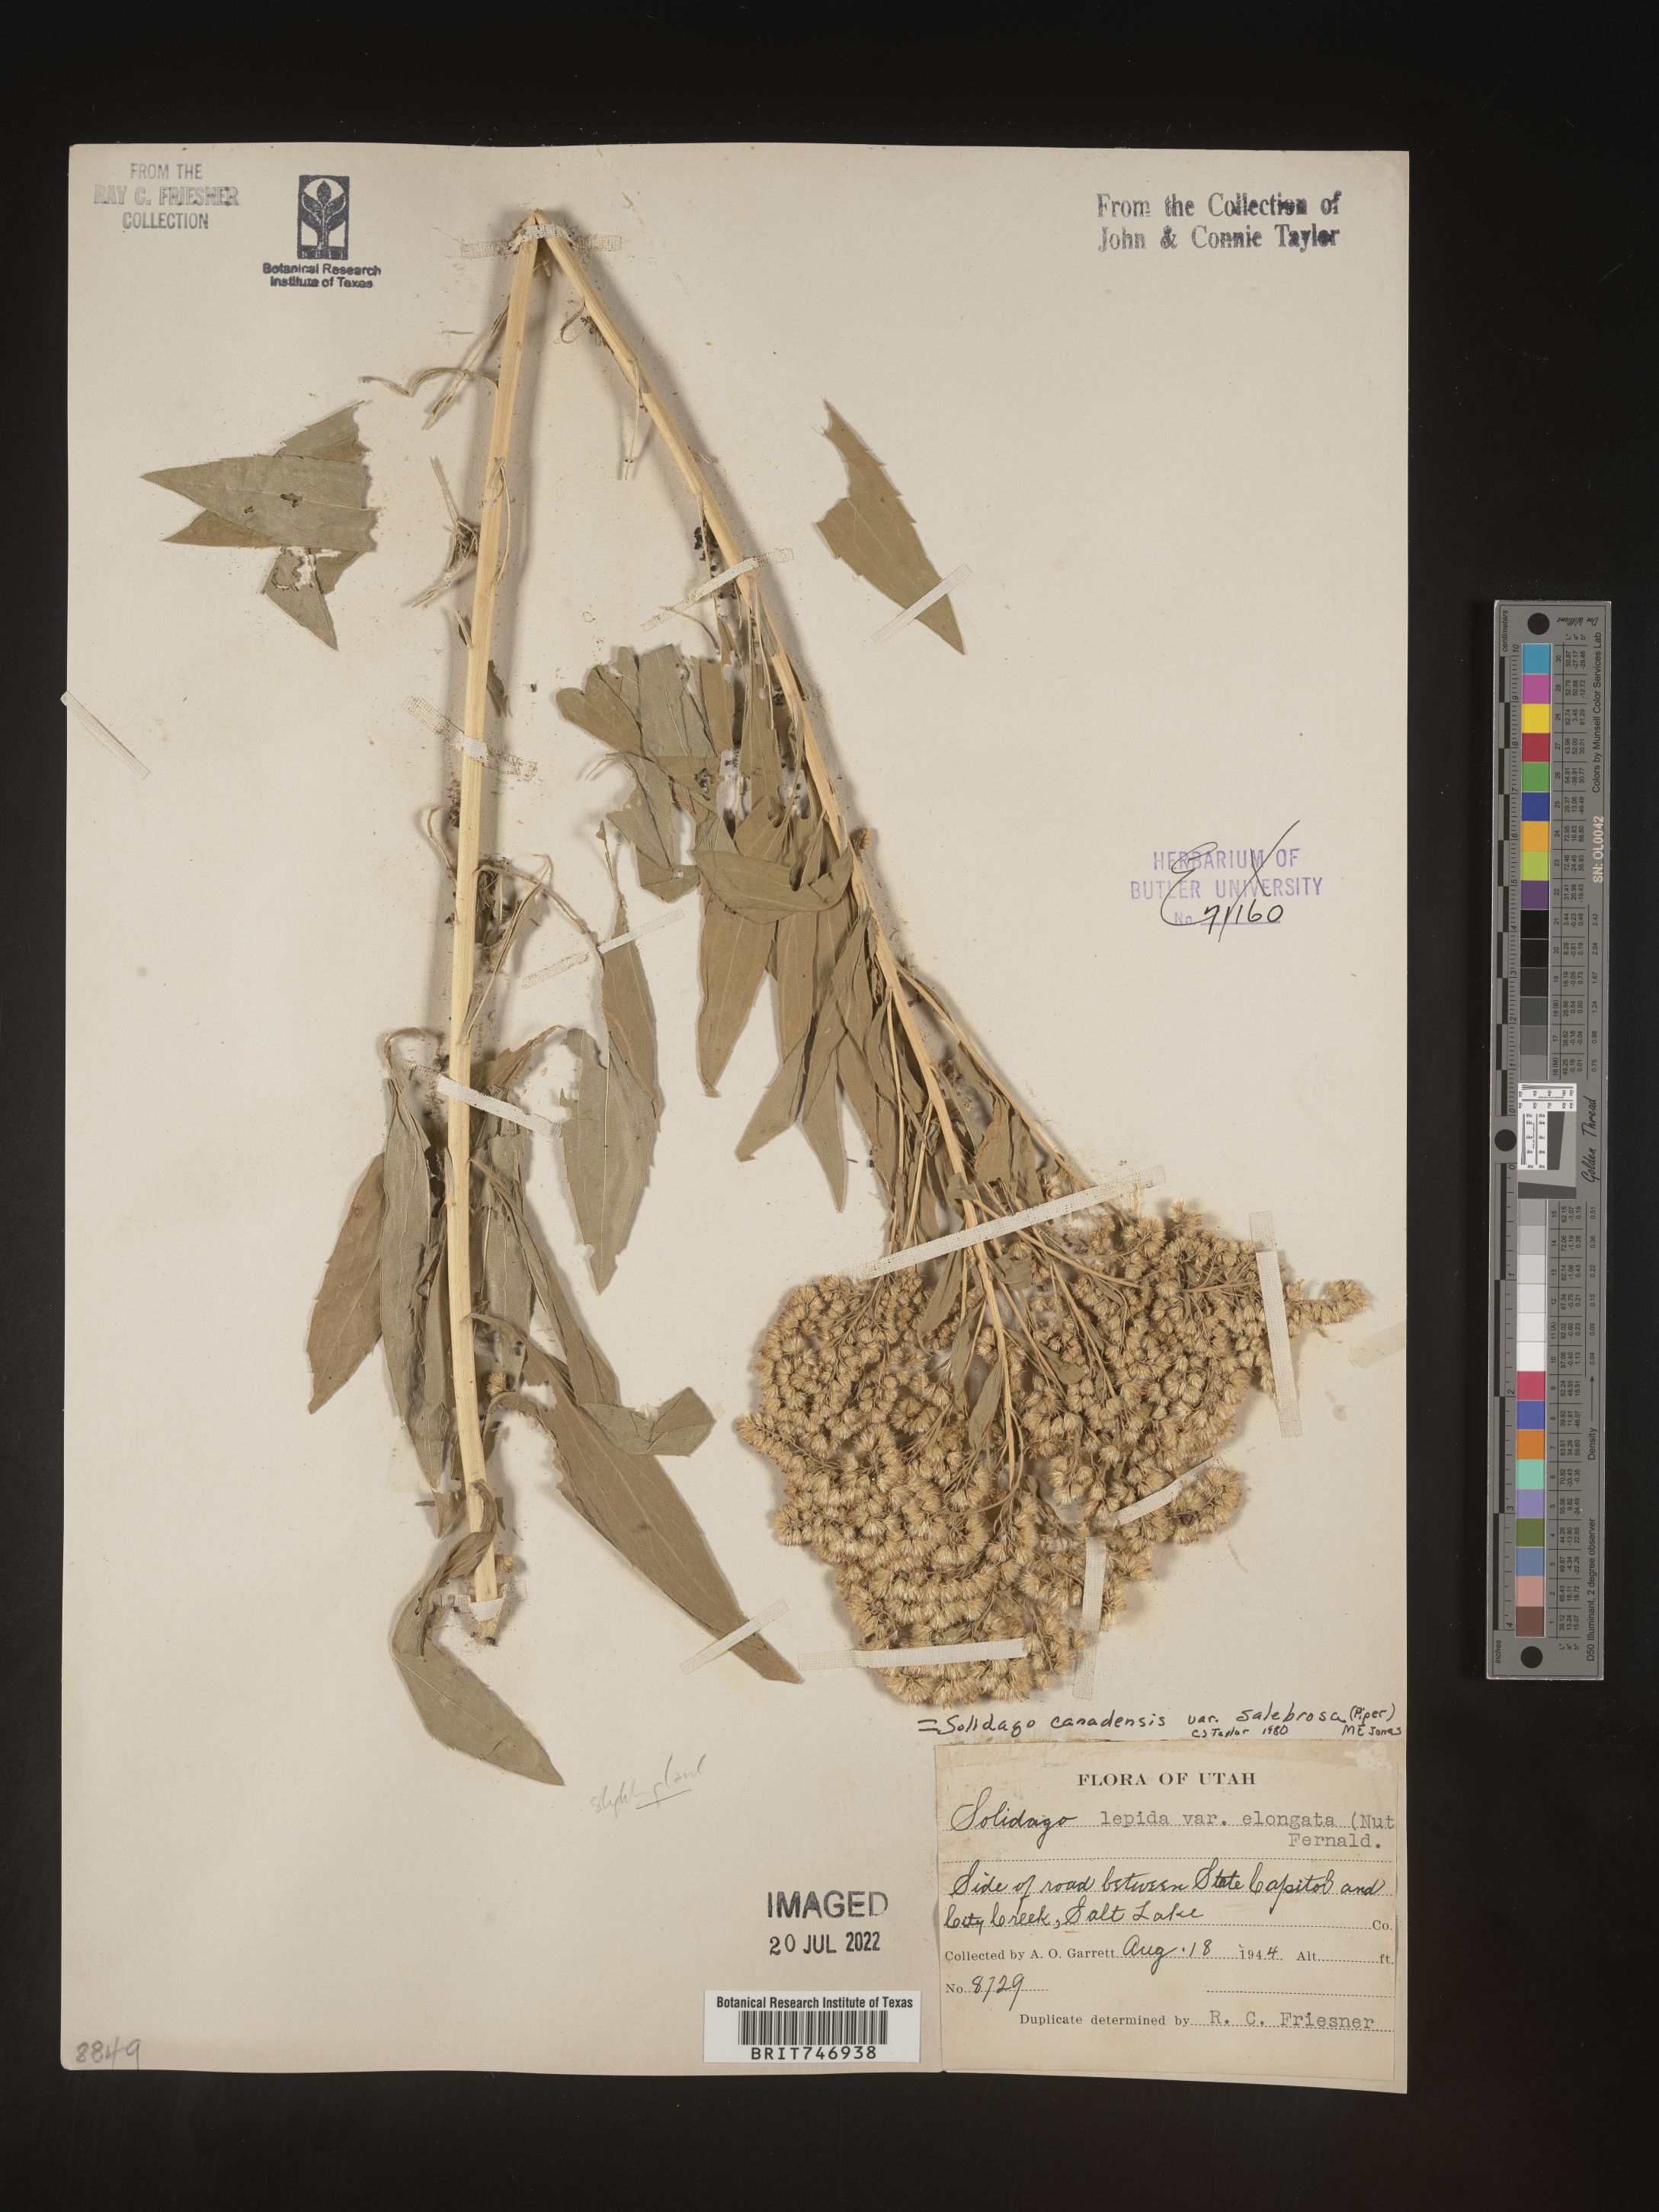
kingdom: Plantae
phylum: Tracheophyta
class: Magnoliopsida
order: Asterales
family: Asteraceae
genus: Solidago
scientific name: Solidago lepida
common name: Western canada goldenrod
